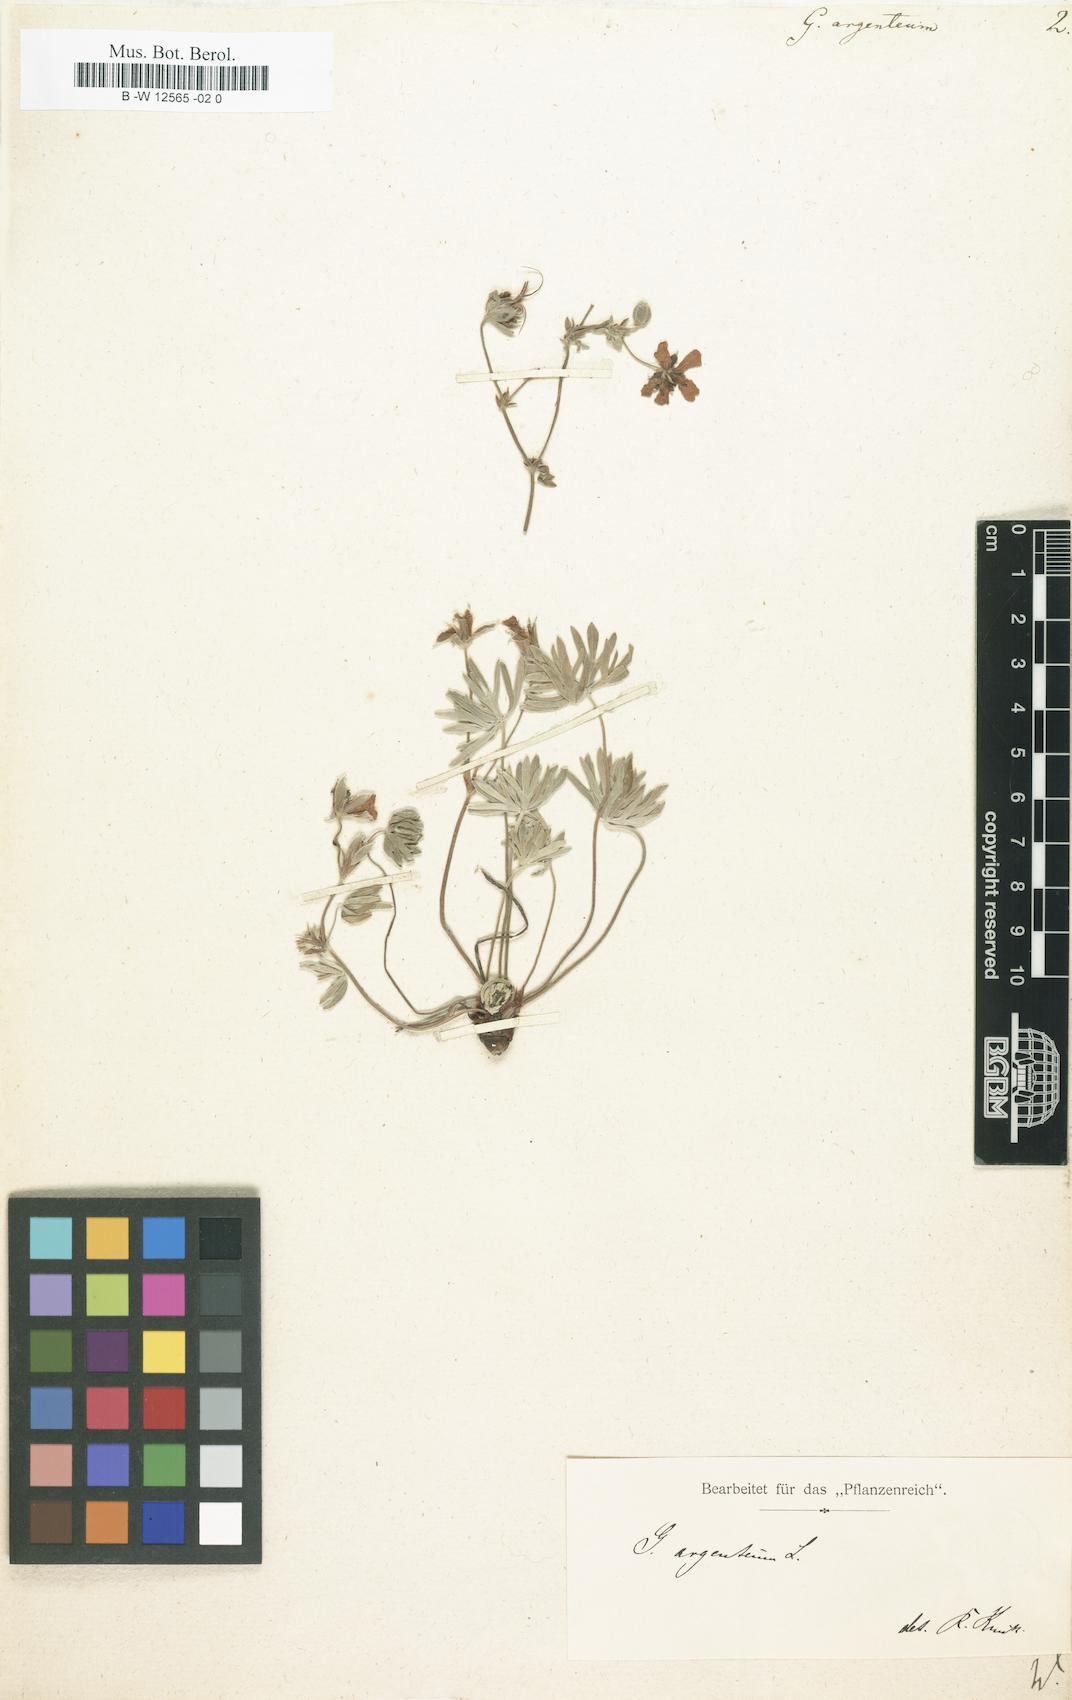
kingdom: Plantae
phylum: Tracheophyta
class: Magnoliopsida
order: Geraniales
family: Geraniaceae
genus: Geranium
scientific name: Geranium argenteum
